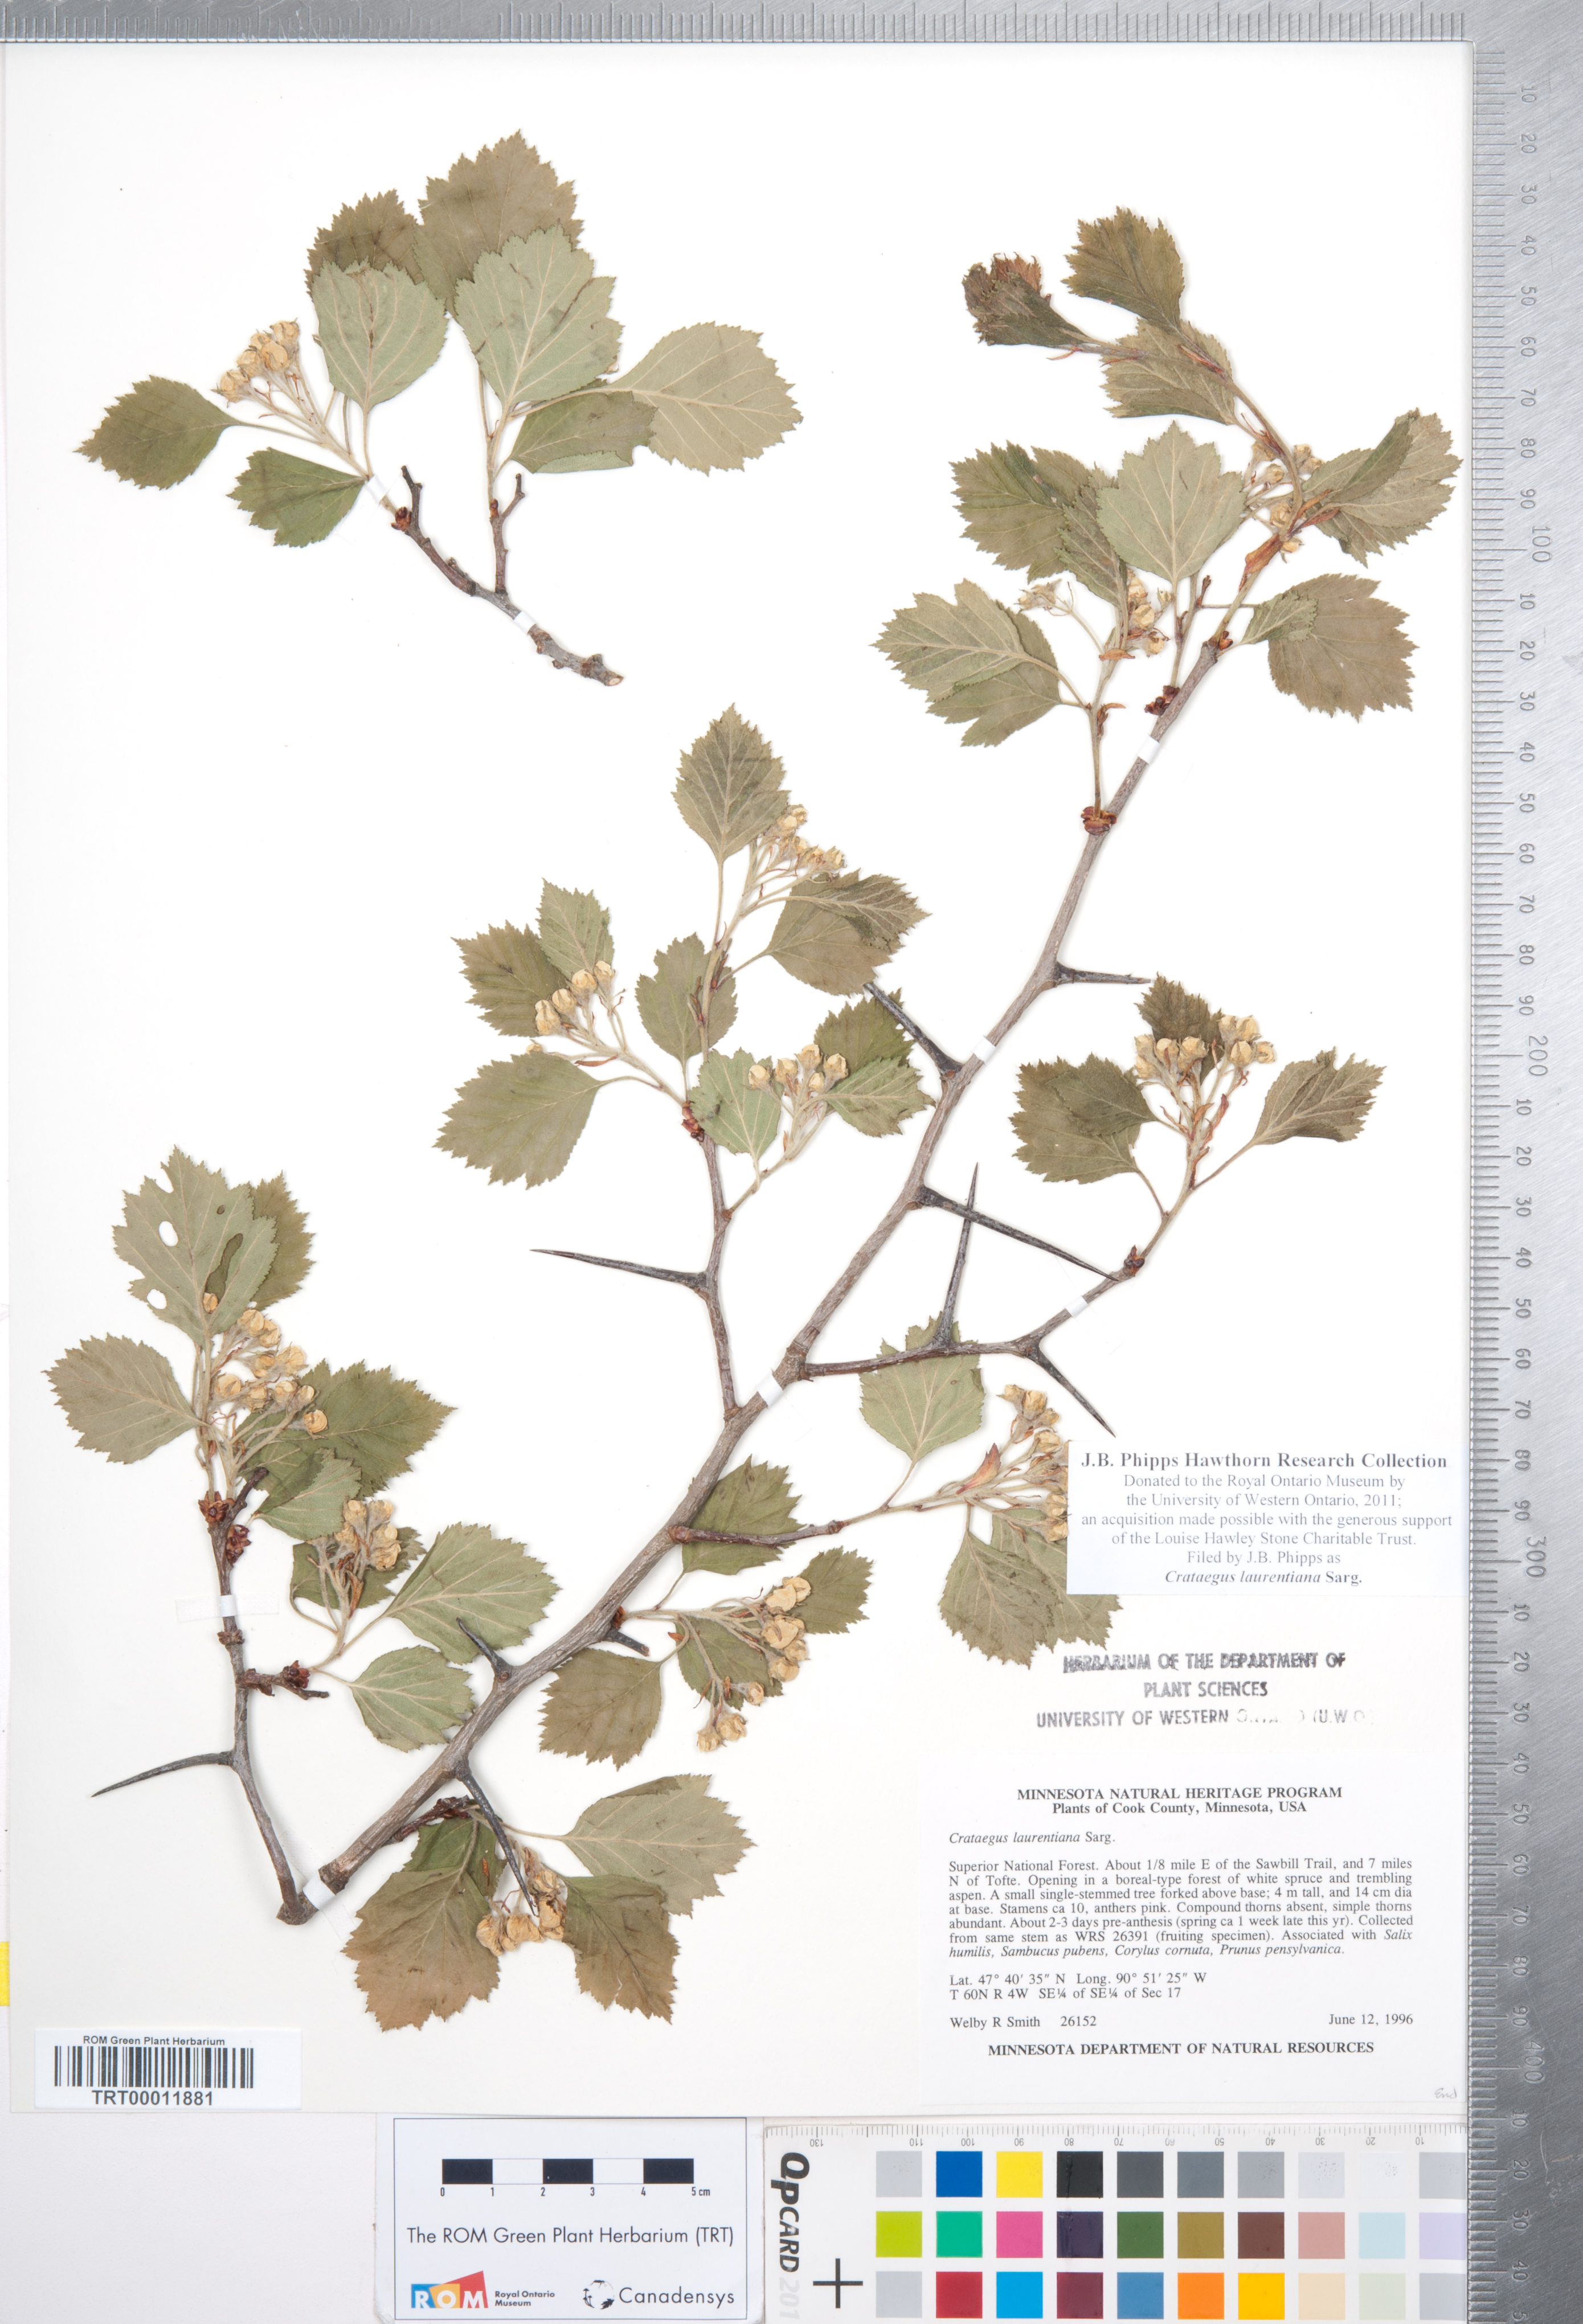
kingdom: Plantae
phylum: Tracheophyta
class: Magnoliopsida
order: Rosales
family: Rosaceae
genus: Crataegus
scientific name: Crataegus jonesiae
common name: Jones' hawthorn
